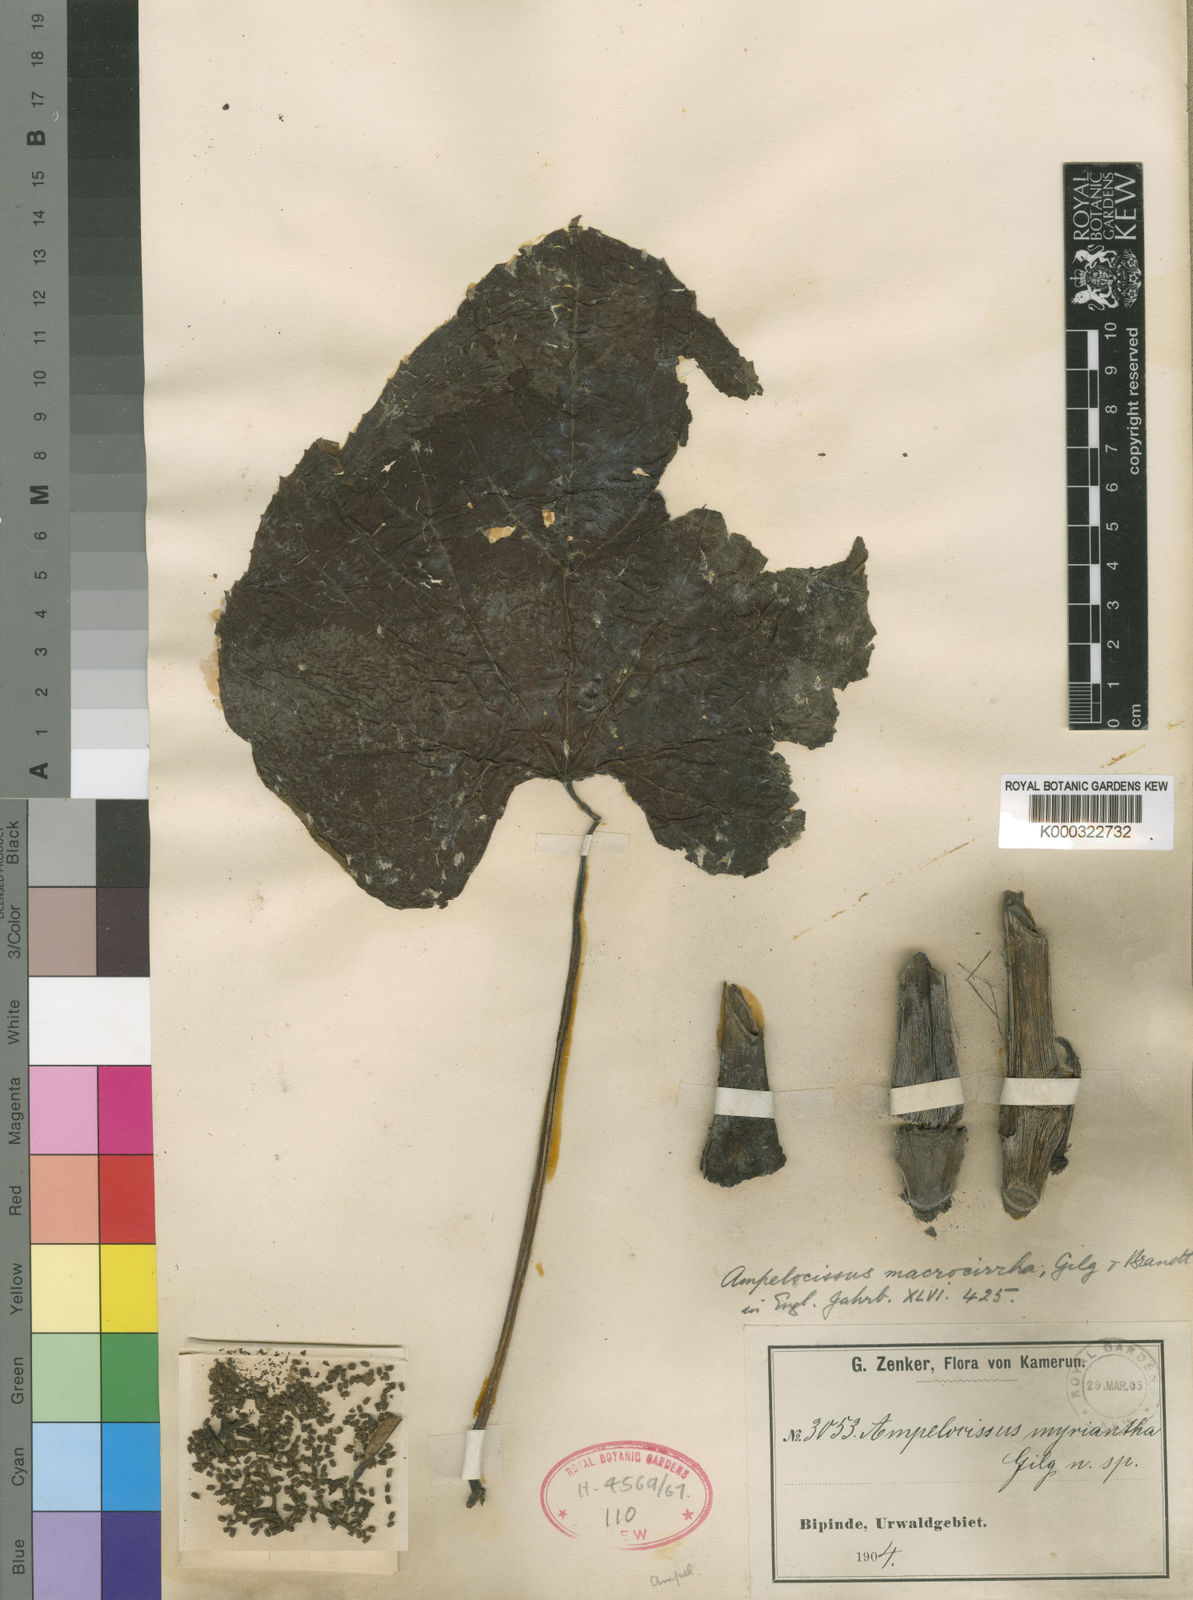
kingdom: Plantae
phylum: Tracheophyta
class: Magnoliopsida
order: Vitales
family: Vitaceae
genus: Ampelocissus
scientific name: Ampelocissus macrocirrha
